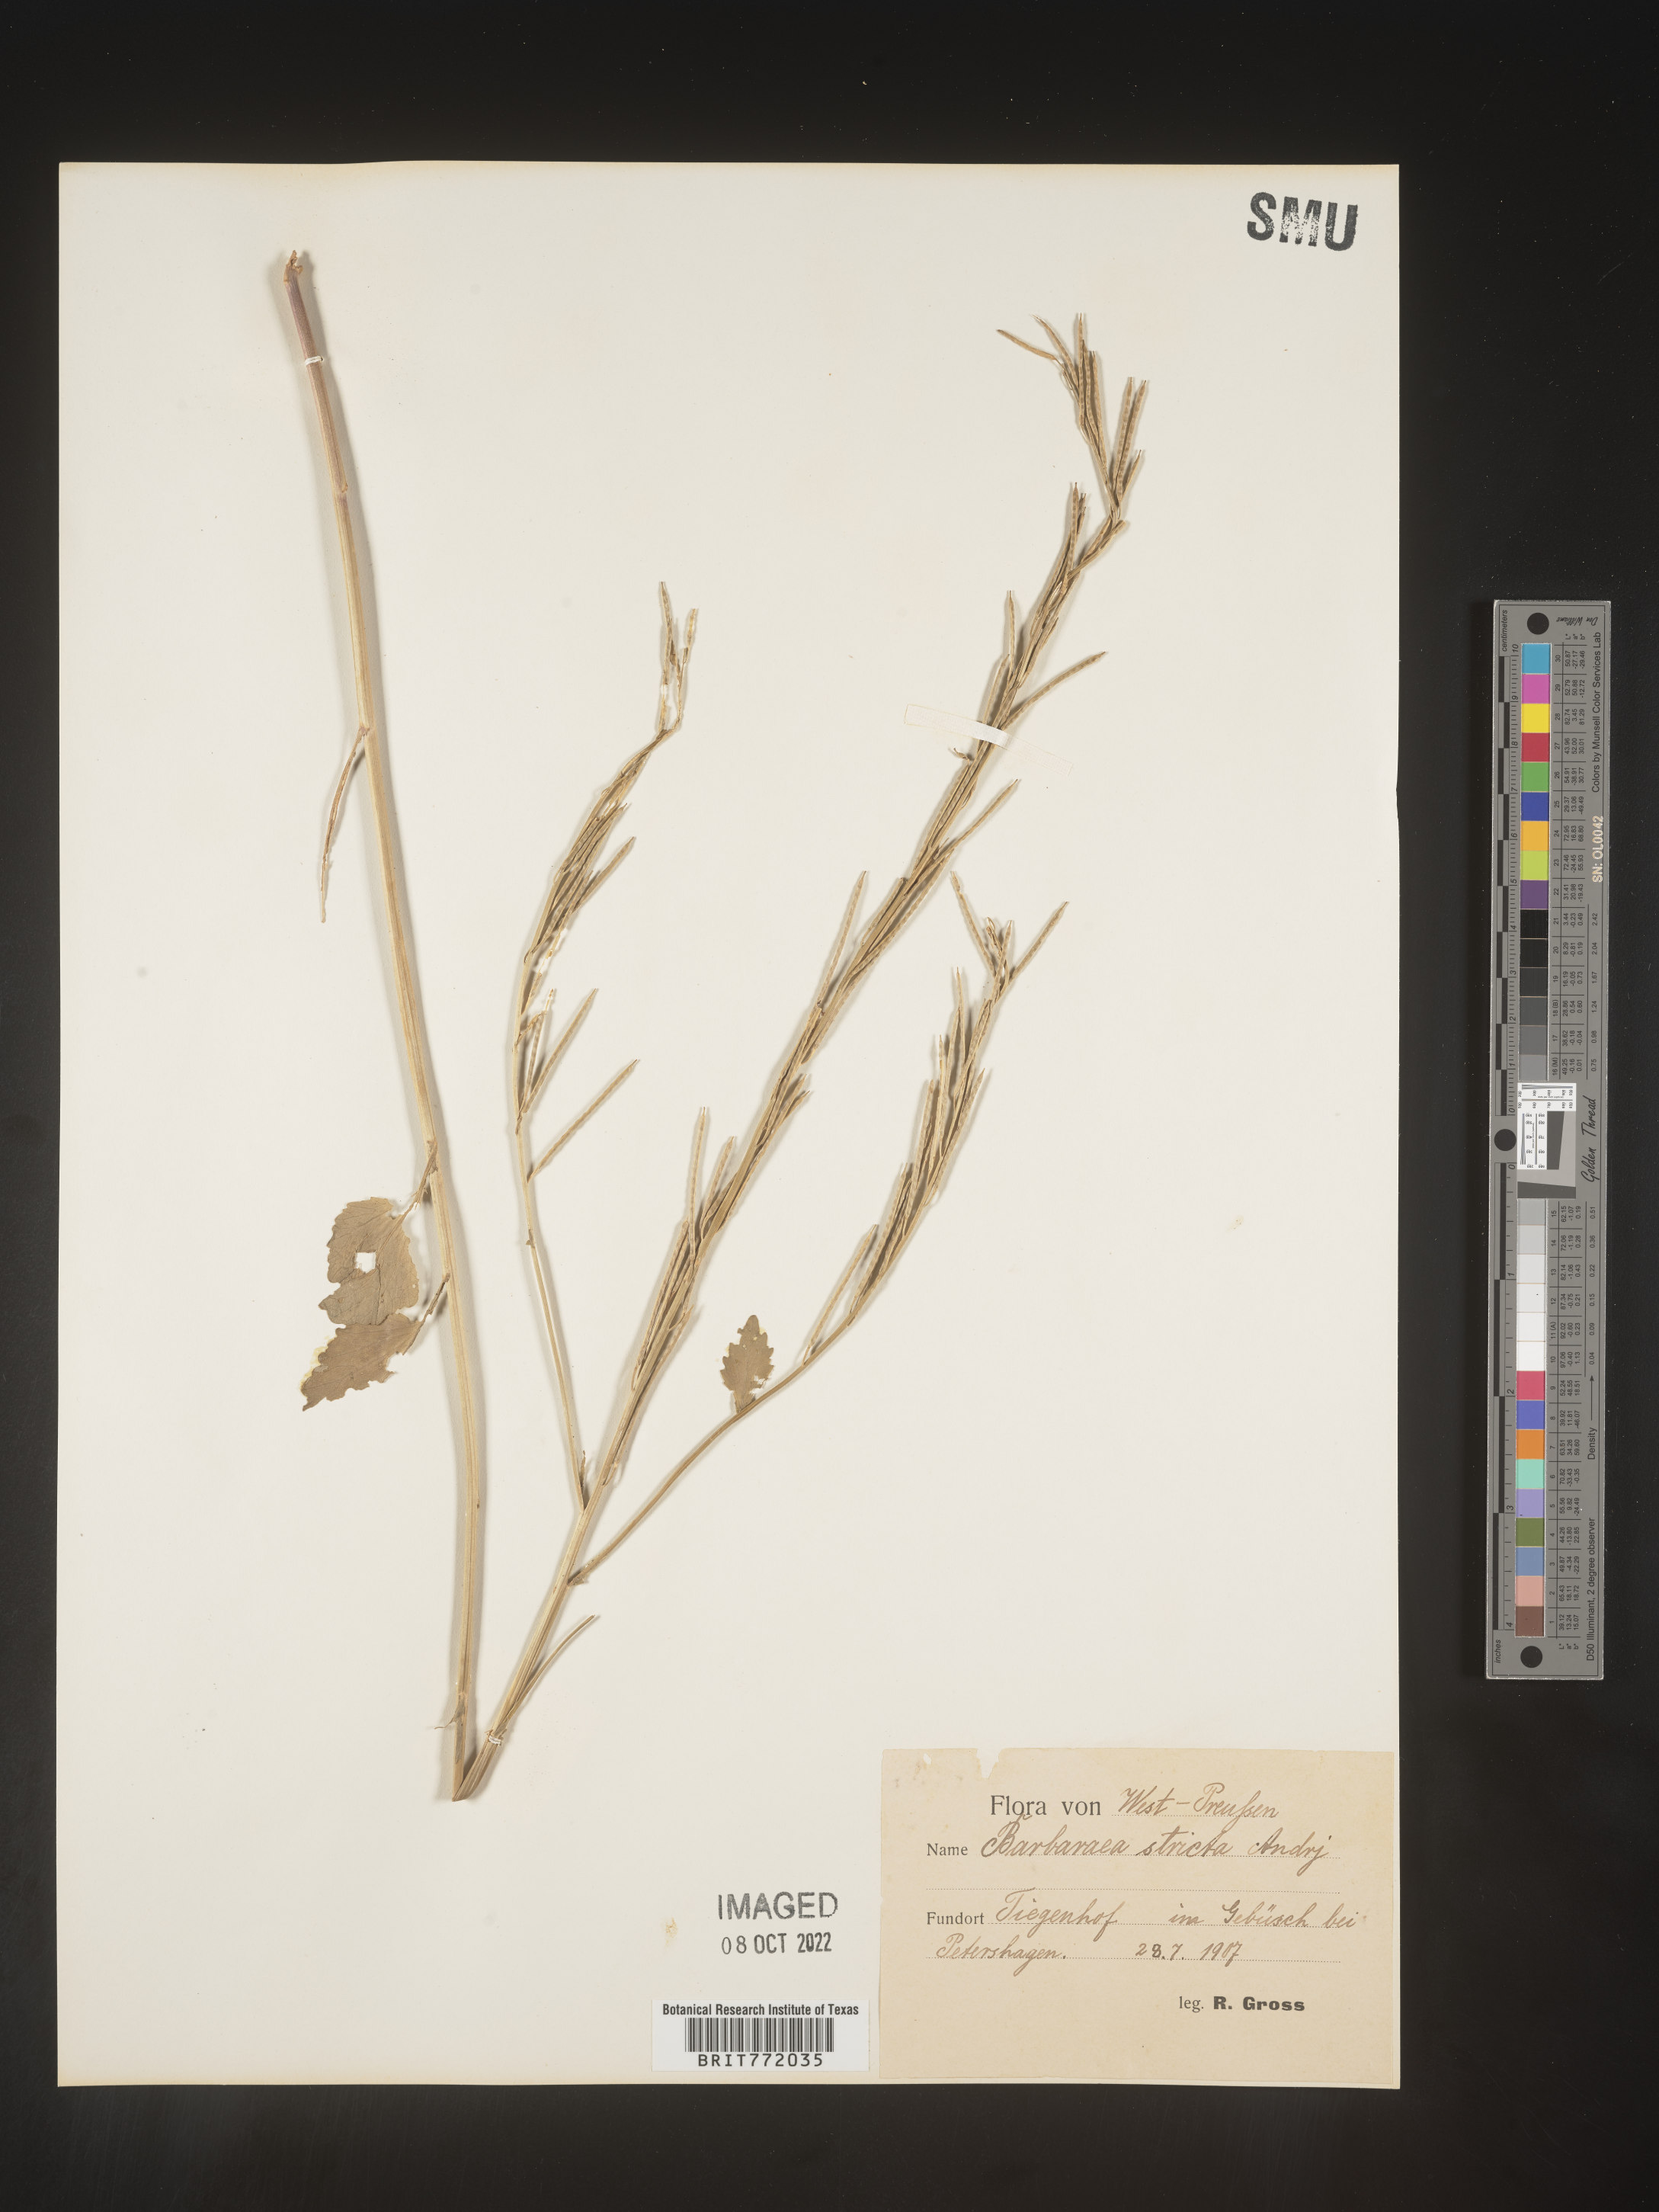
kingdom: Plantae
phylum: Tracheophyta
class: Magnoliopsida
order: Brassicales
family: Brassicaceae
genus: Barbarea
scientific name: Barbarea
